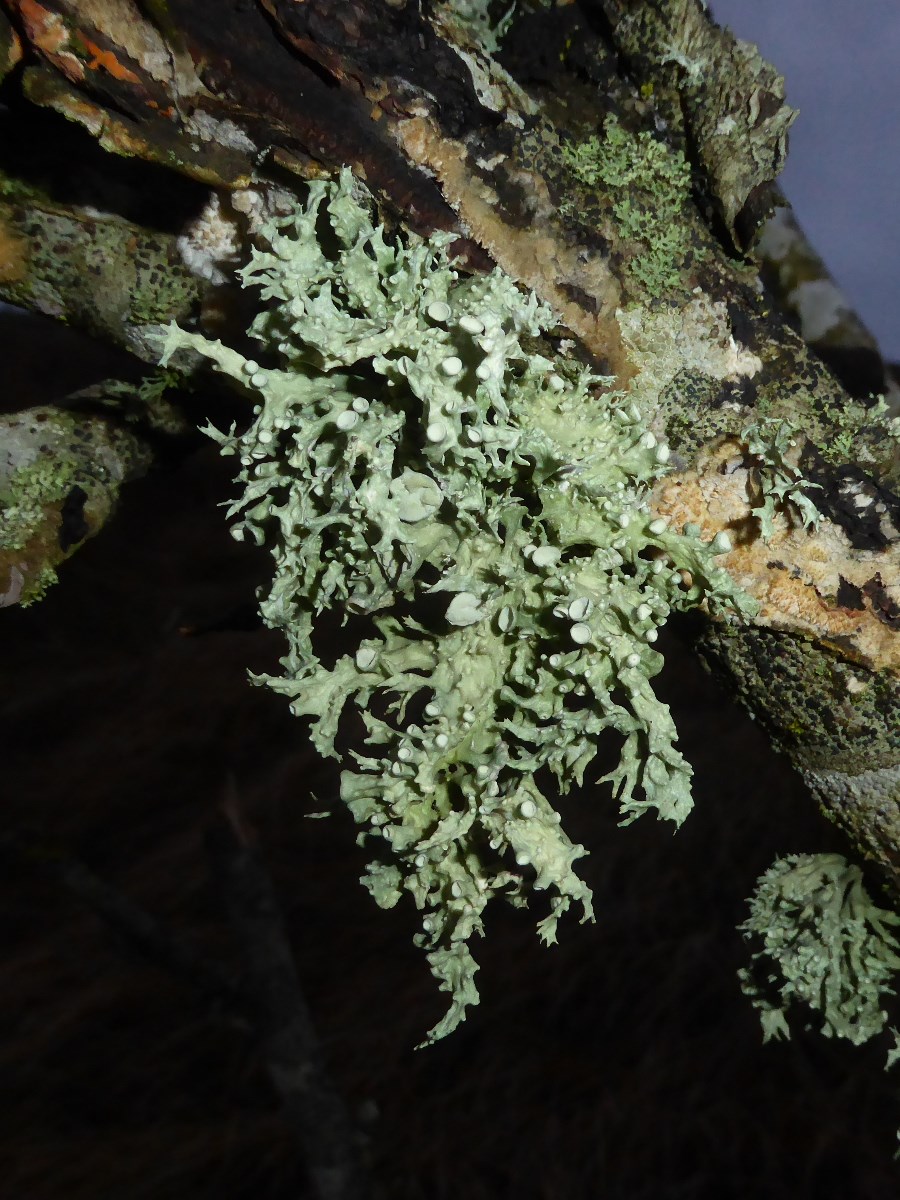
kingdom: Fungi
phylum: Ascomycota
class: Lecanoromycetes
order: Lecanorales
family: Ramalinaceae
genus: Ramalina
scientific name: Ramalina fastigiata
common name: tue-grenlav
